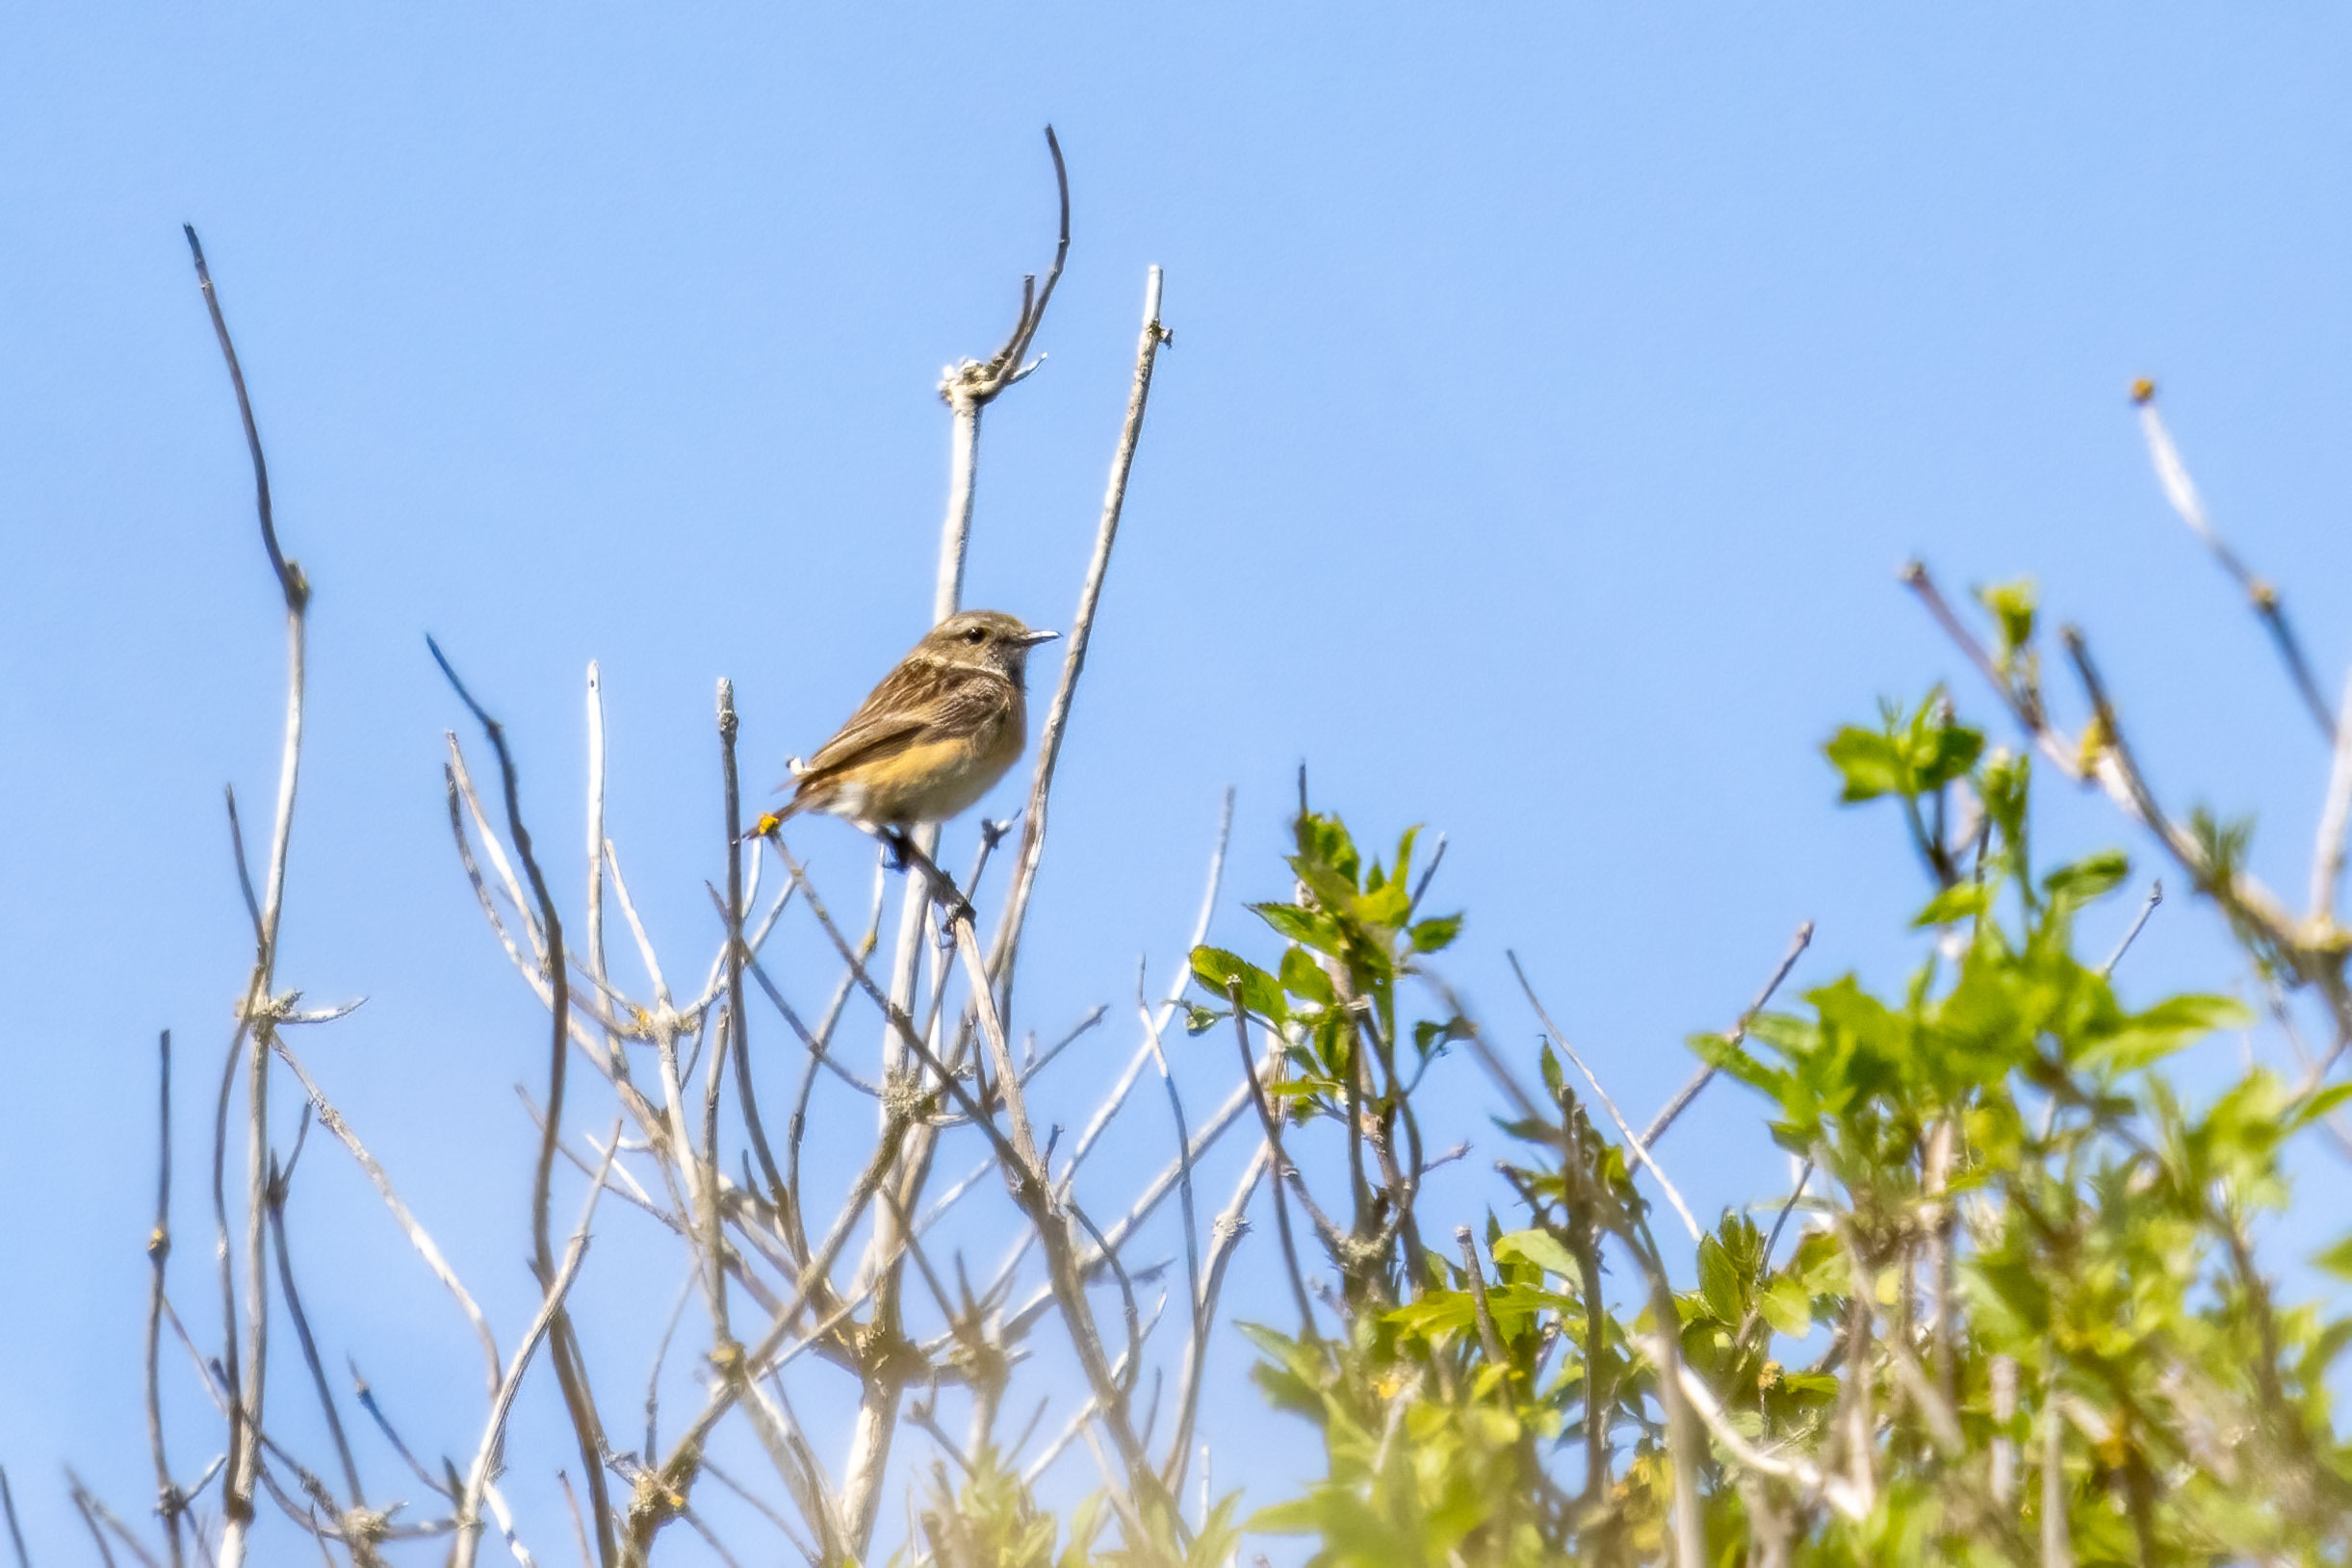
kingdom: Animalia
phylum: Chordata
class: Aves
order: Passeriformes
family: Muscicapidae
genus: Saxicola
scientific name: Saxicola rubicola
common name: Sortstrubet bynkefugl
